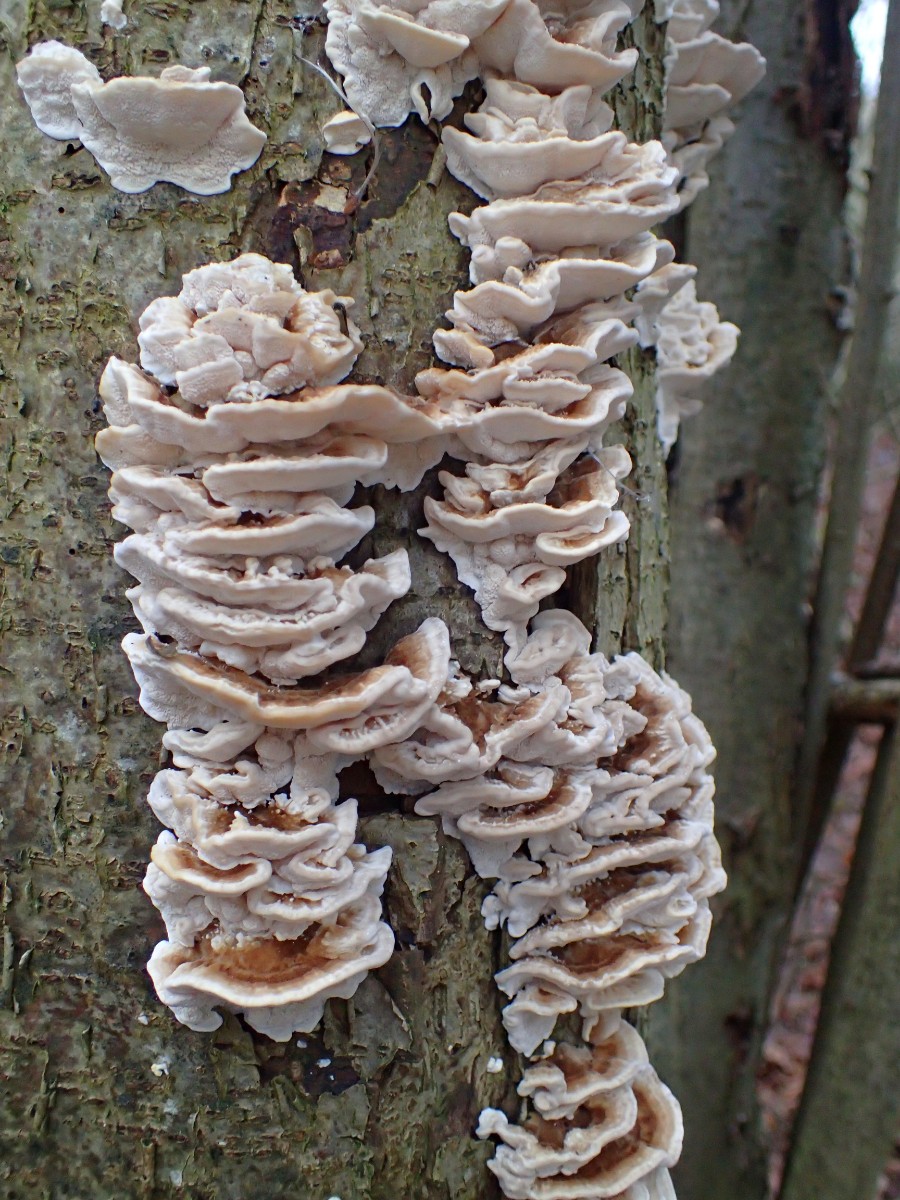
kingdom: Fungi
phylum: Basidiomycota
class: Agaricomycetes
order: Polyporales
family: Polyporaceae
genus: Trametes
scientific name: Trametes versicolor
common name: broget læderporesvamp
